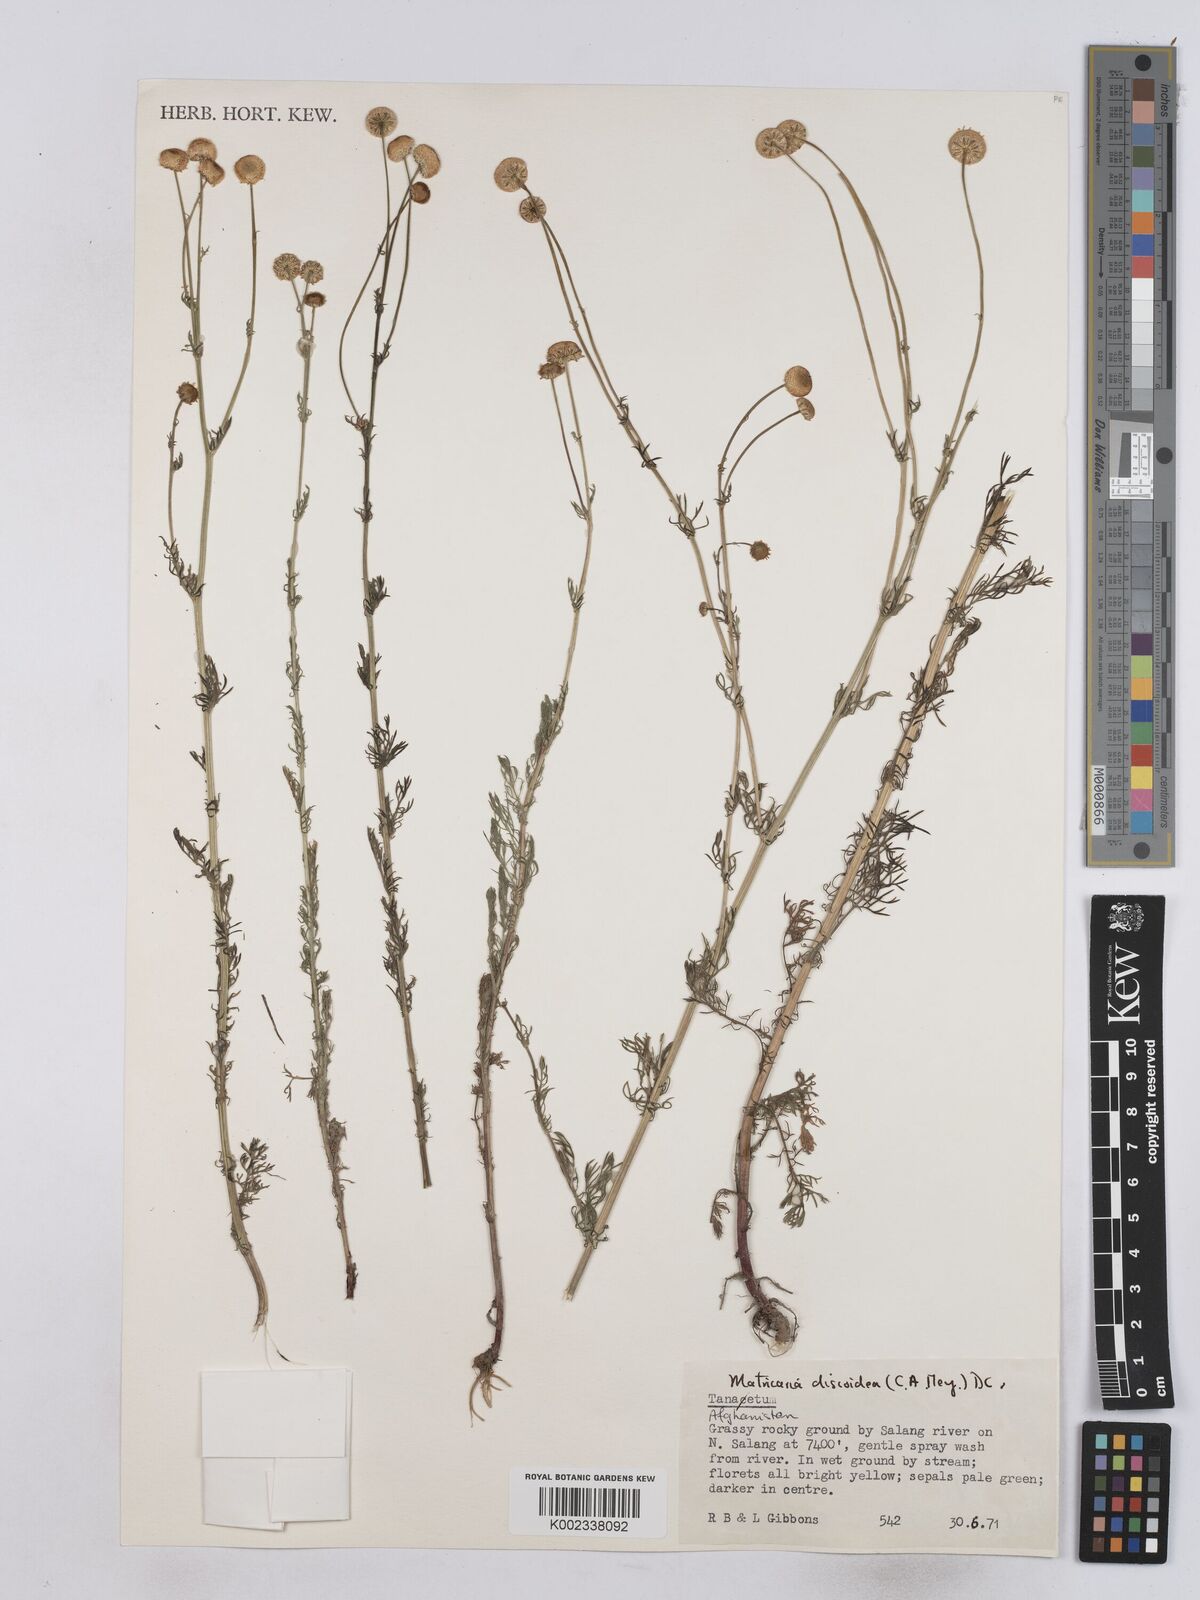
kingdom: Plantae
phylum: Tracheophyta
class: Magnoliopsida
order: Asterales
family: Asteraceae
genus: Matricaria
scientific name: Matricaria discoidea
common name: Disc mayweed
